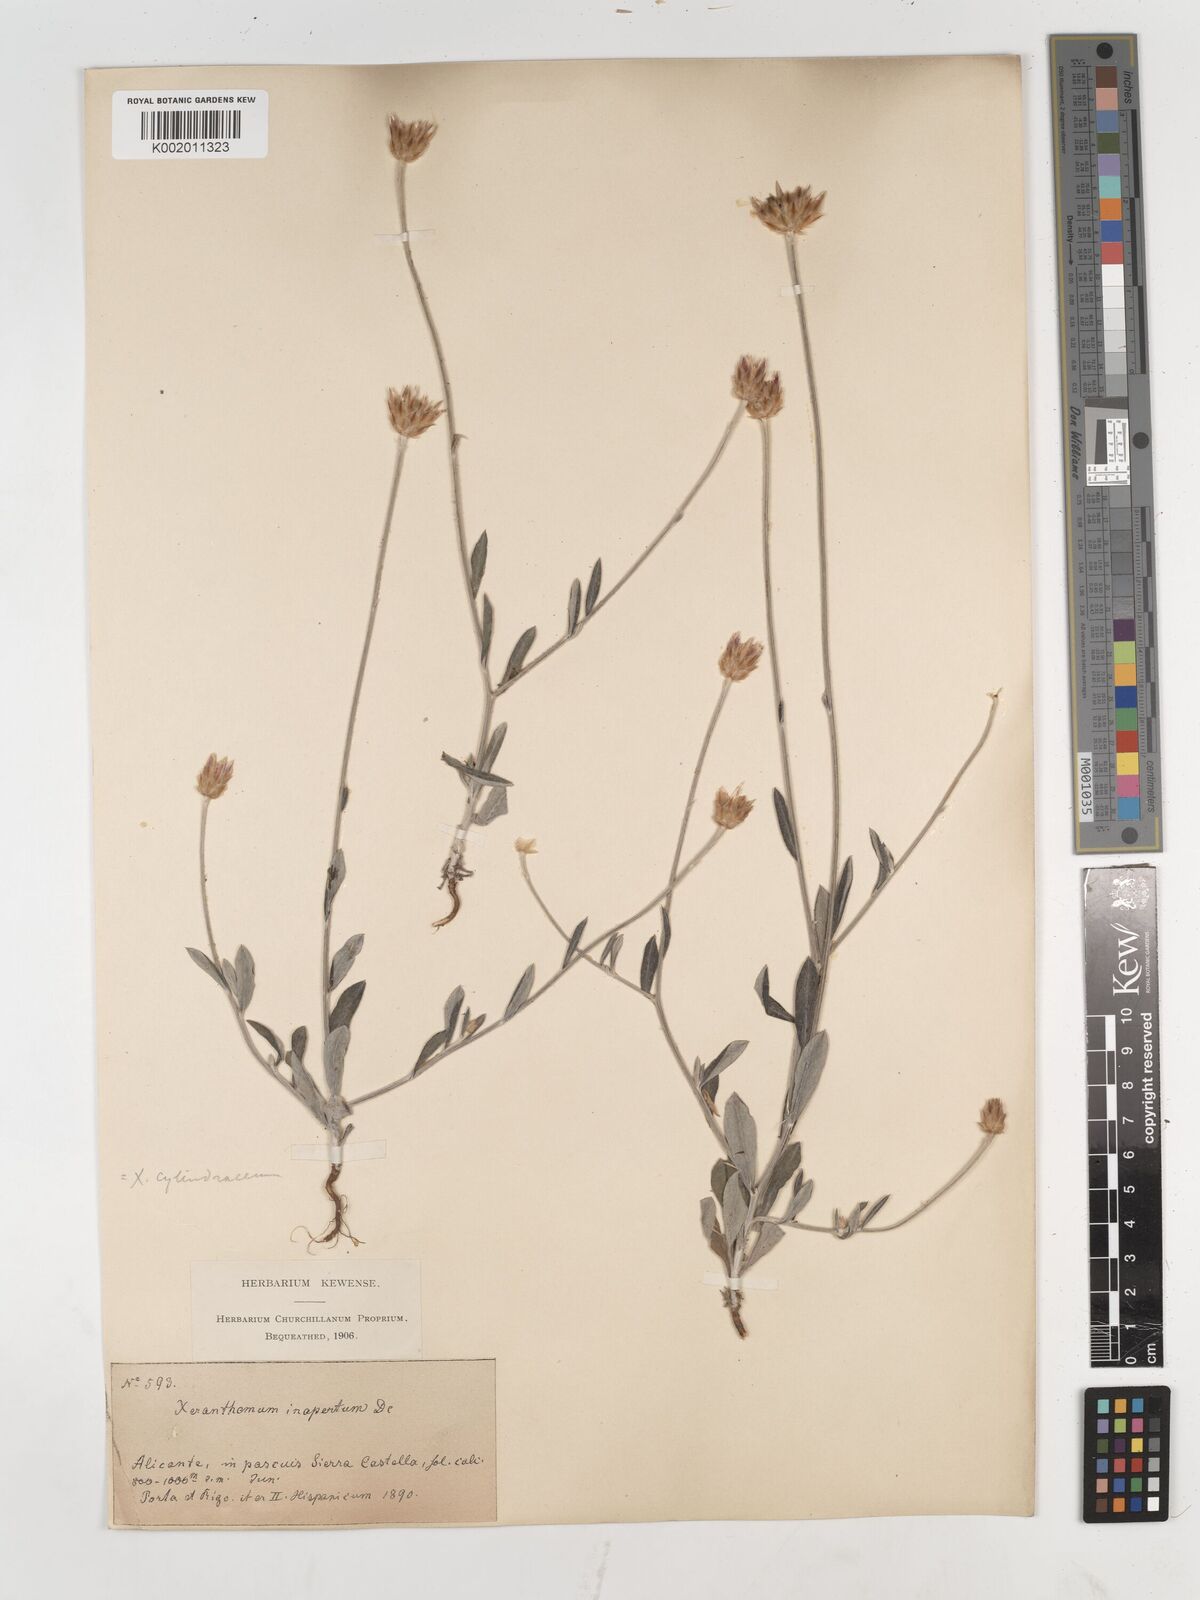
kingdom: Plantae
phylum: Tracheophyta
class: Magnoliopsida
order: Asterales
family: Asteraceae
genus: Xeranthemum
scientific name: Xeranthemum inapertum
